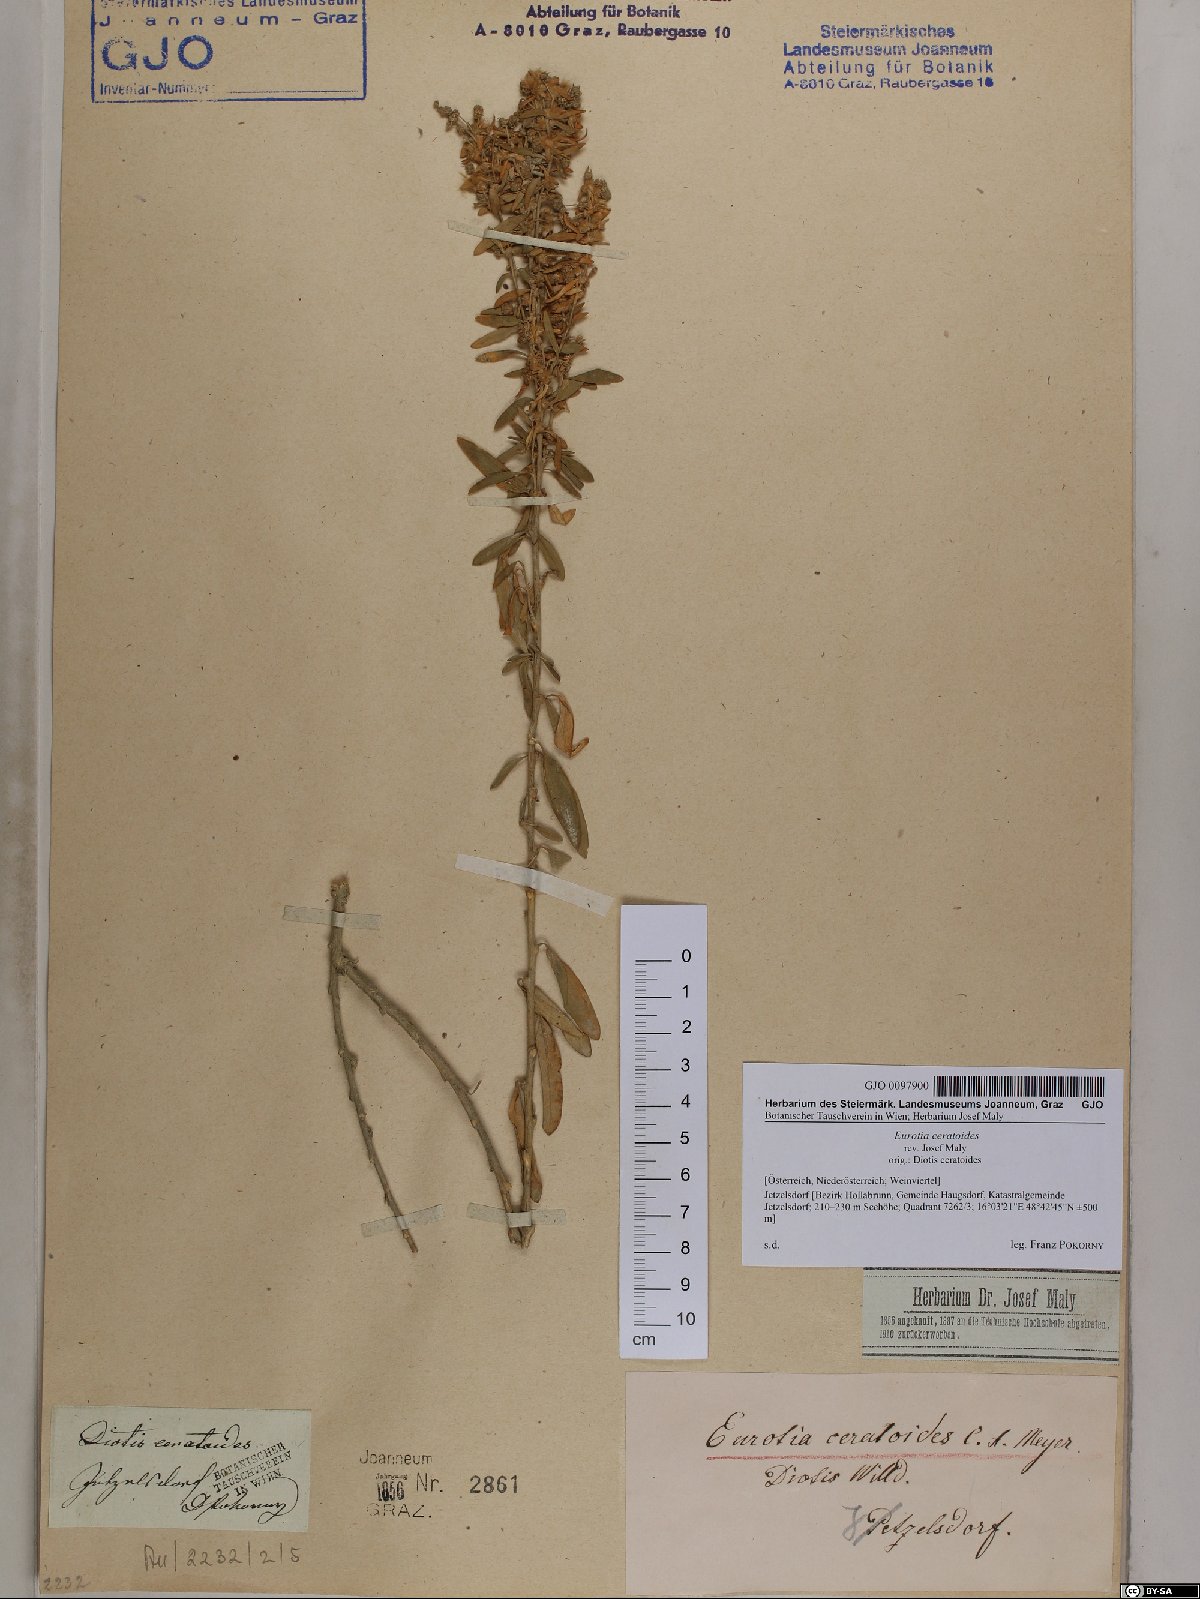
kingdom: Plantae
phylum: Tracheophyta
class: Magnoliopsida
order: Caryophyllales
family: Amaranthaceae
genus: Krascheninnikovia
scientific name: Krascheninnikovia ceratoides
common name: Pamirian winterfat
